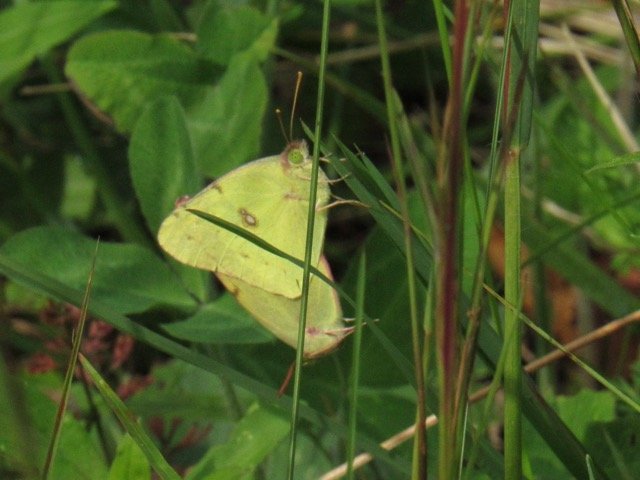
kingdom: Animalia
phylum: Arthropoda
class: Insecta
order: Lepidoptera
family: Pieridae
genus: Colias
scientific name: Colias philodice
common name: Clouded Sulphur
